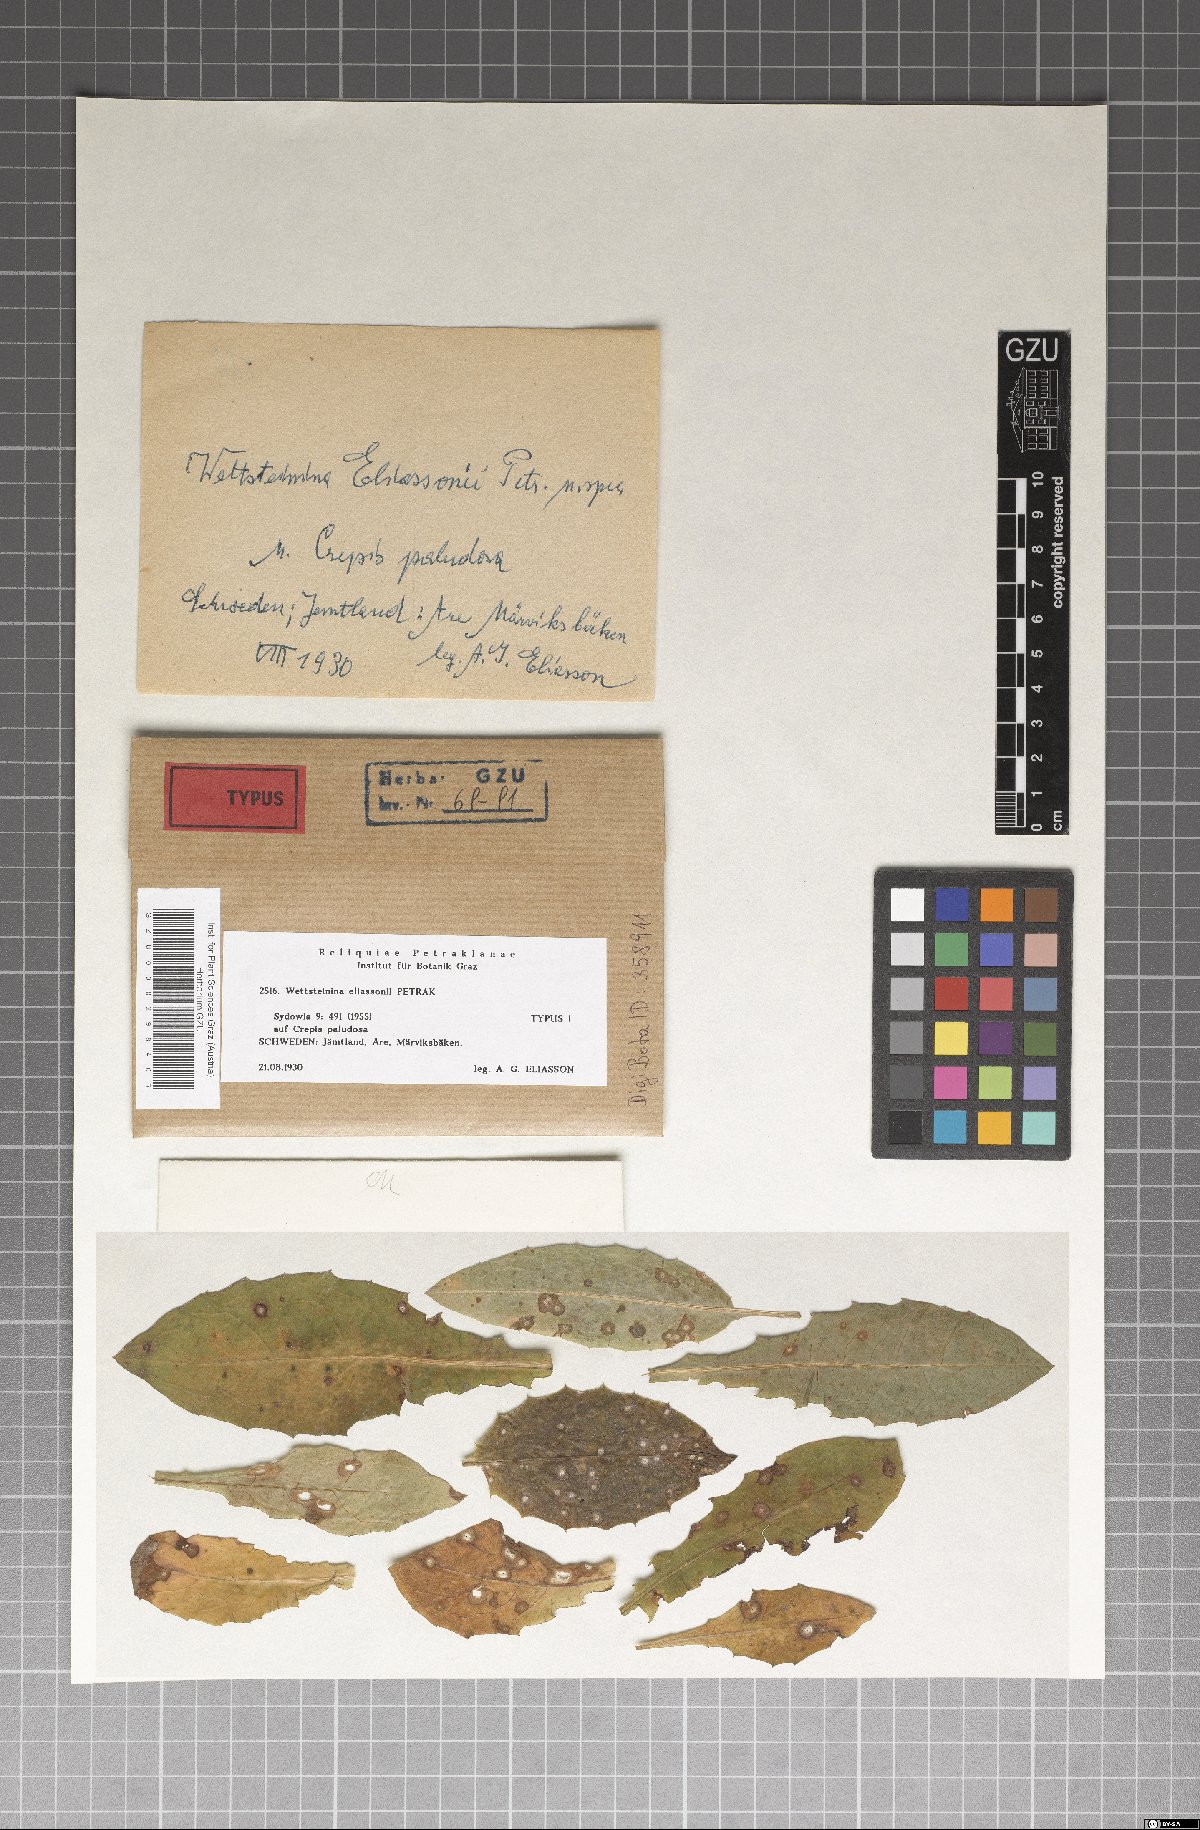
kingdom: Fungi
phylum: Ascomycota
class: Dothideomycetes
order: Pleosporales
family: Pleosporaceae
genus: Wettsteinina
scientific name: Wettsteinina eliassonii
